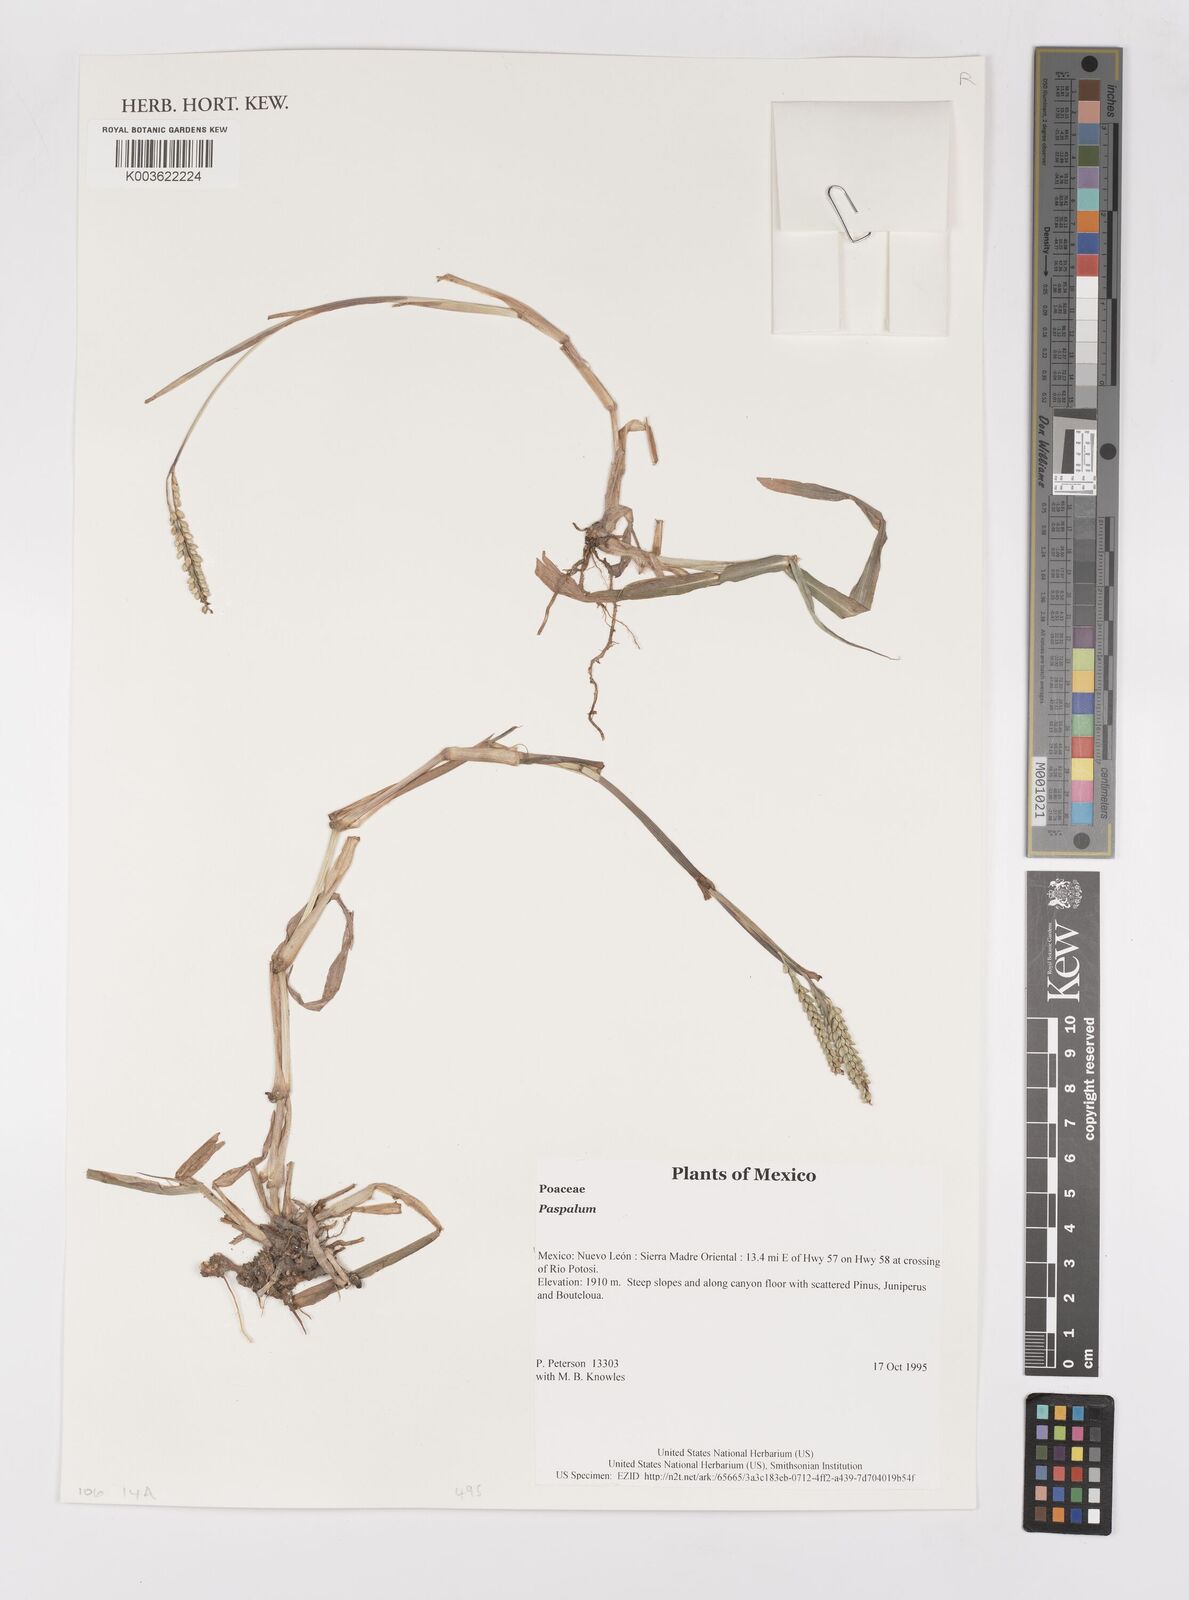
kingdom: Plantae
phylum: Tracheophyta
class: Liliopsida
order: Poales
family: Poaceae
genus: Paspalum
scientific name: Paspalum
